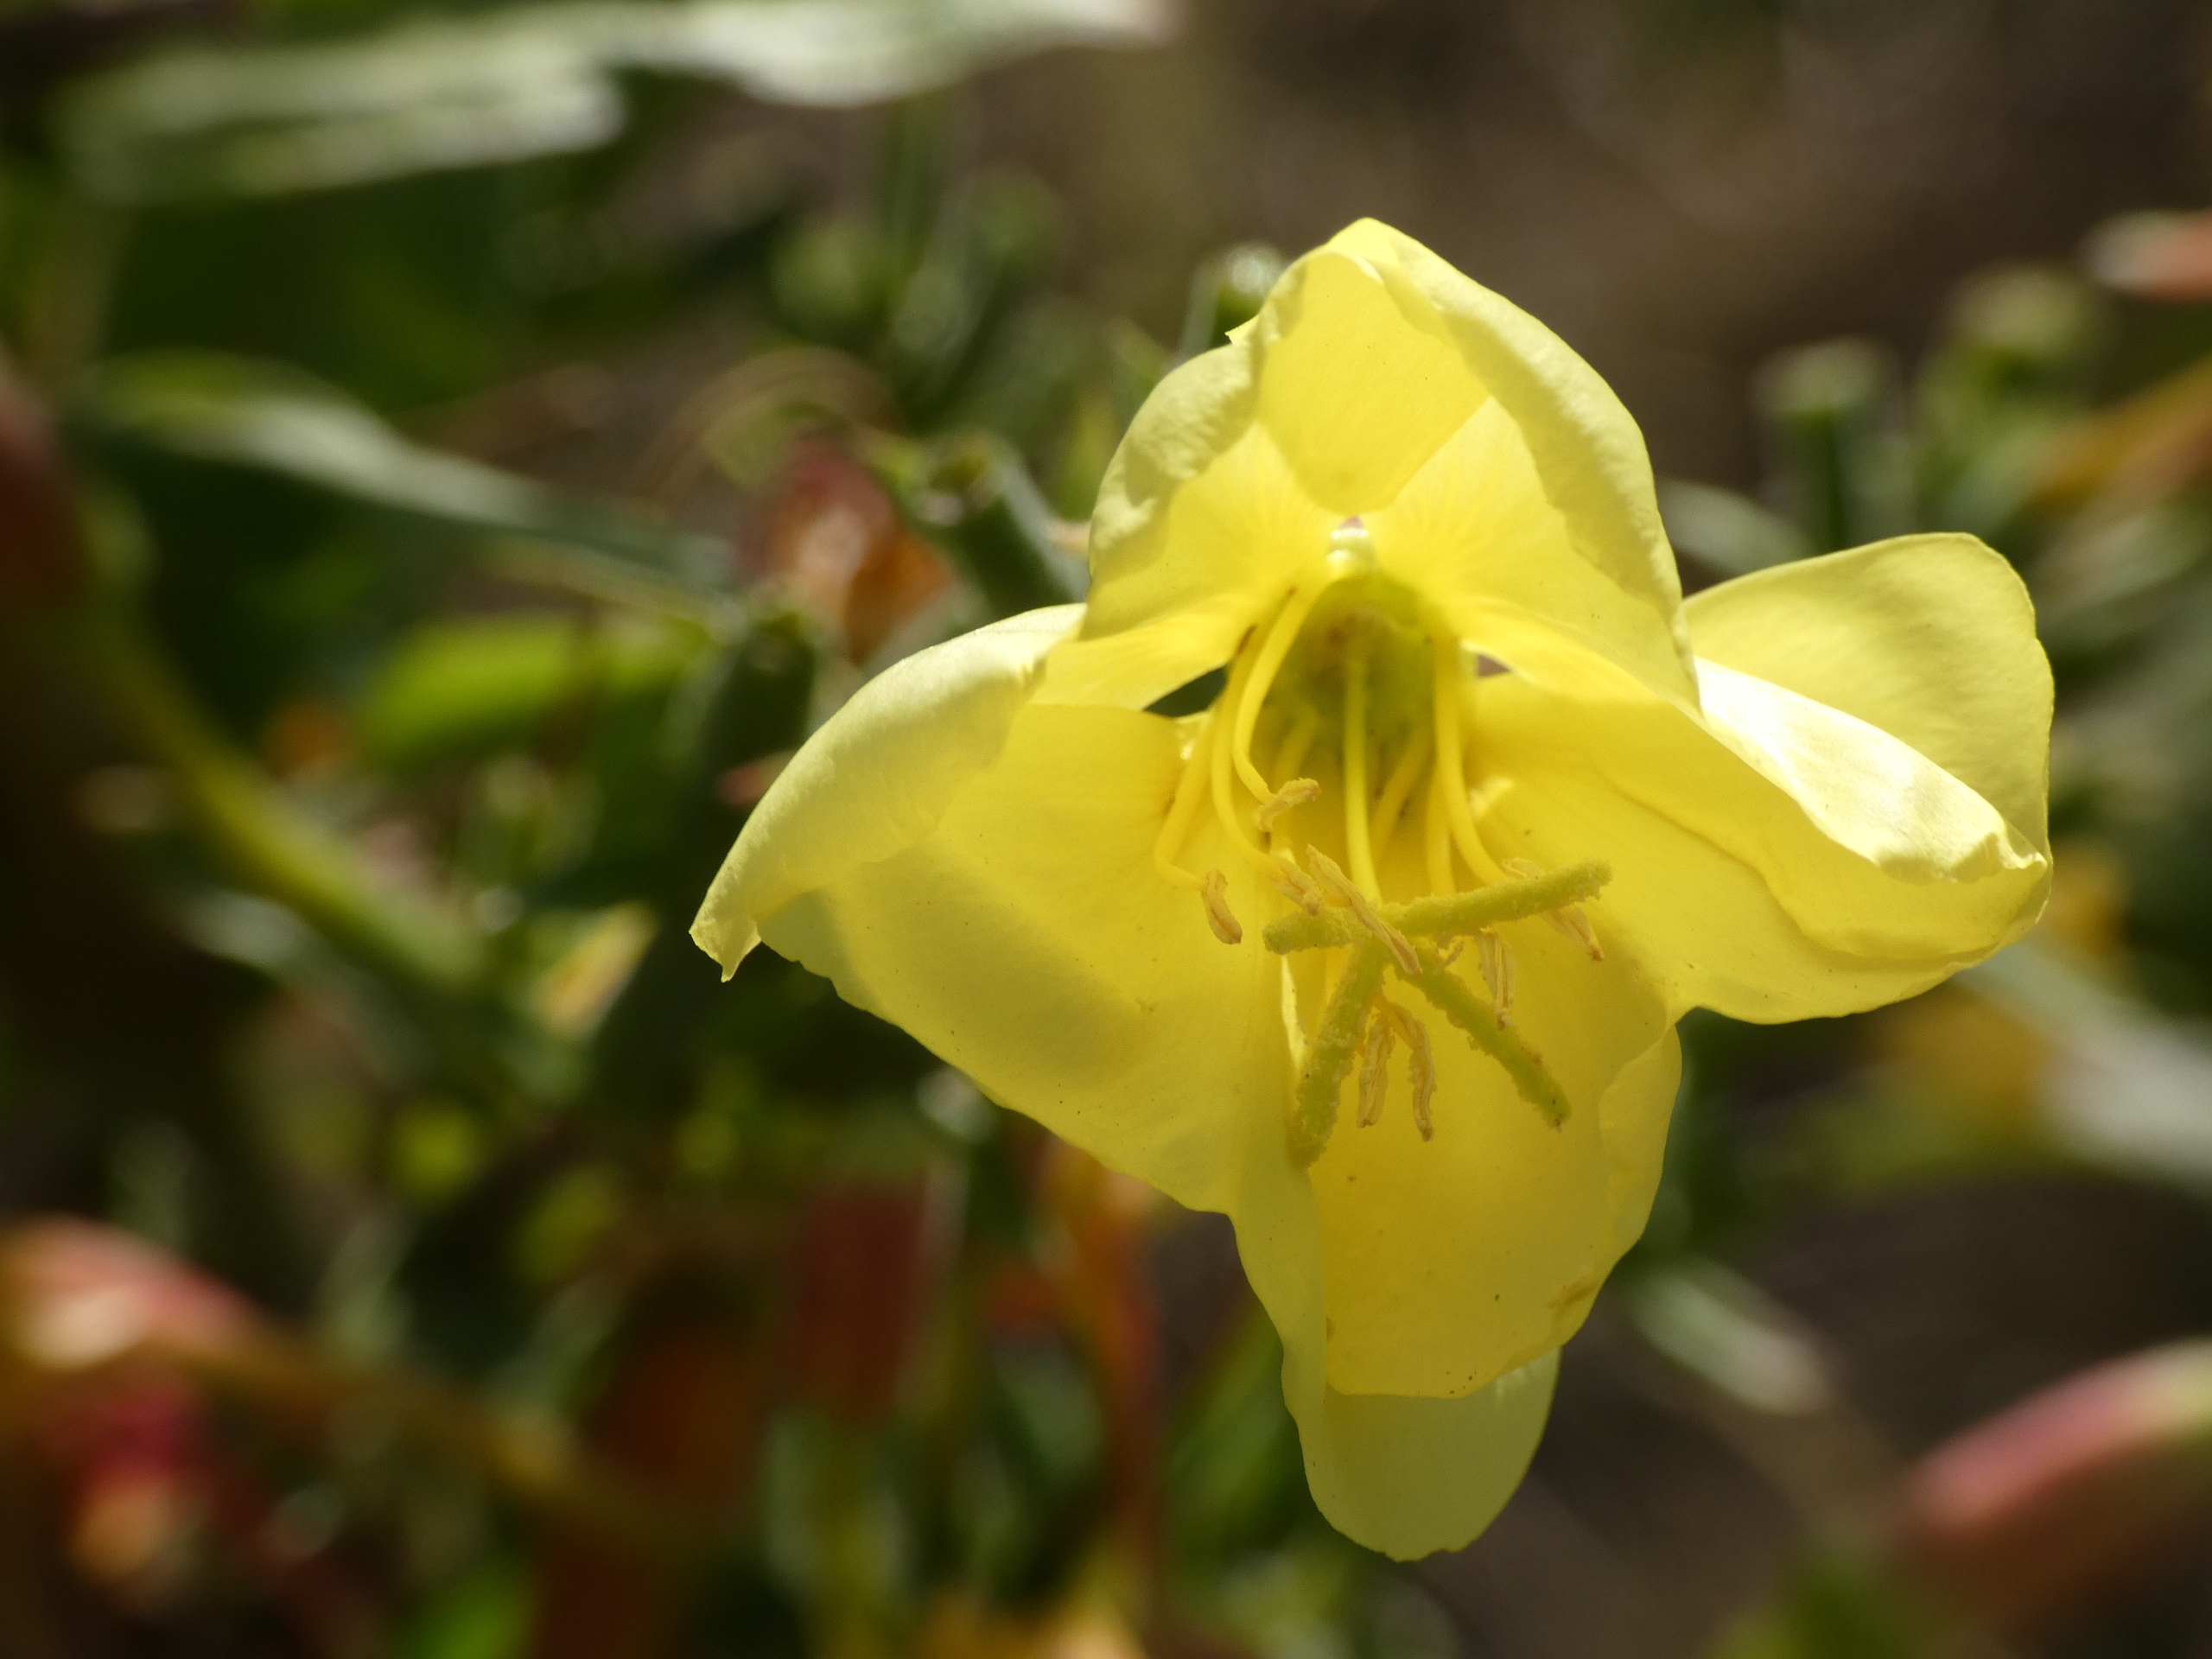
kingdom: Plantae
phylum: Tracheophyta
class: Magnoliopsida
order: Myrtales
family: Onagraceae
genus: Oenothera
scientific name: Oenothera glazioviana
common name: Kæmpe-natlys
